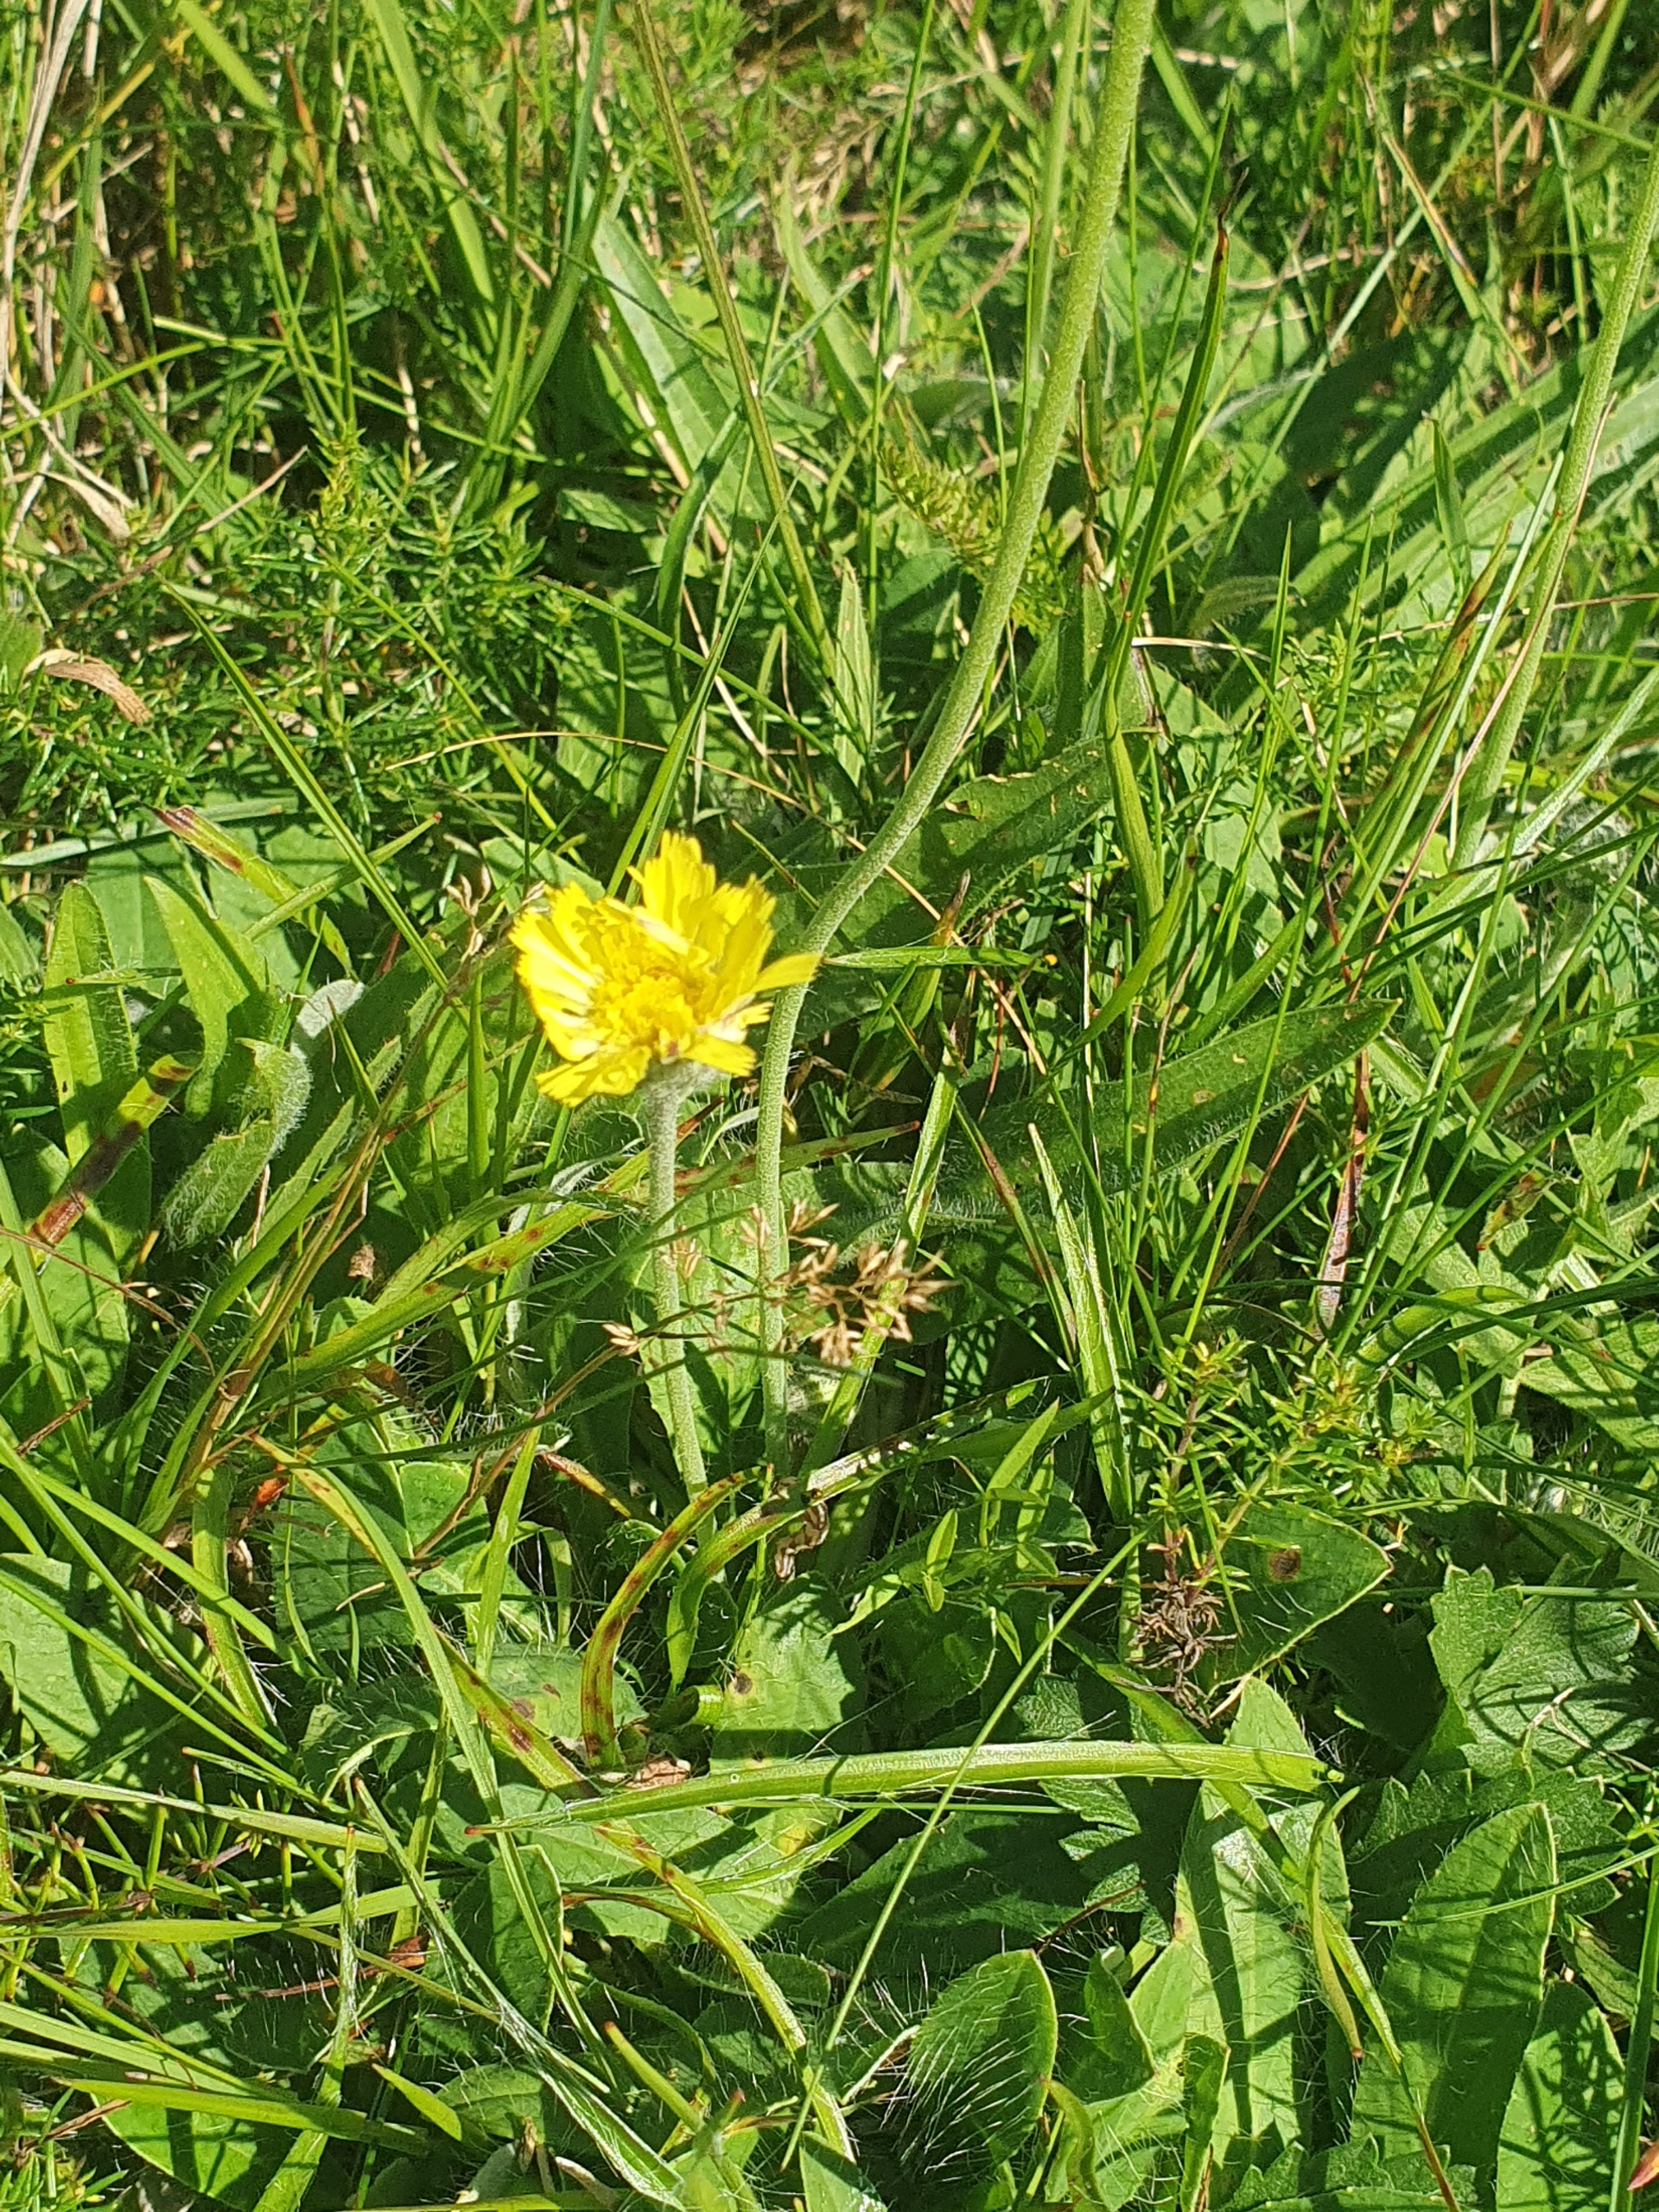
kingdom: Plantae
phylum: Tracheophyta
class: Magnoliopsida
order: Asterales
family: Asteraceae
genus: Pilosella
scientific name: Pilosella officinarum
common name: Håret høgeurt
